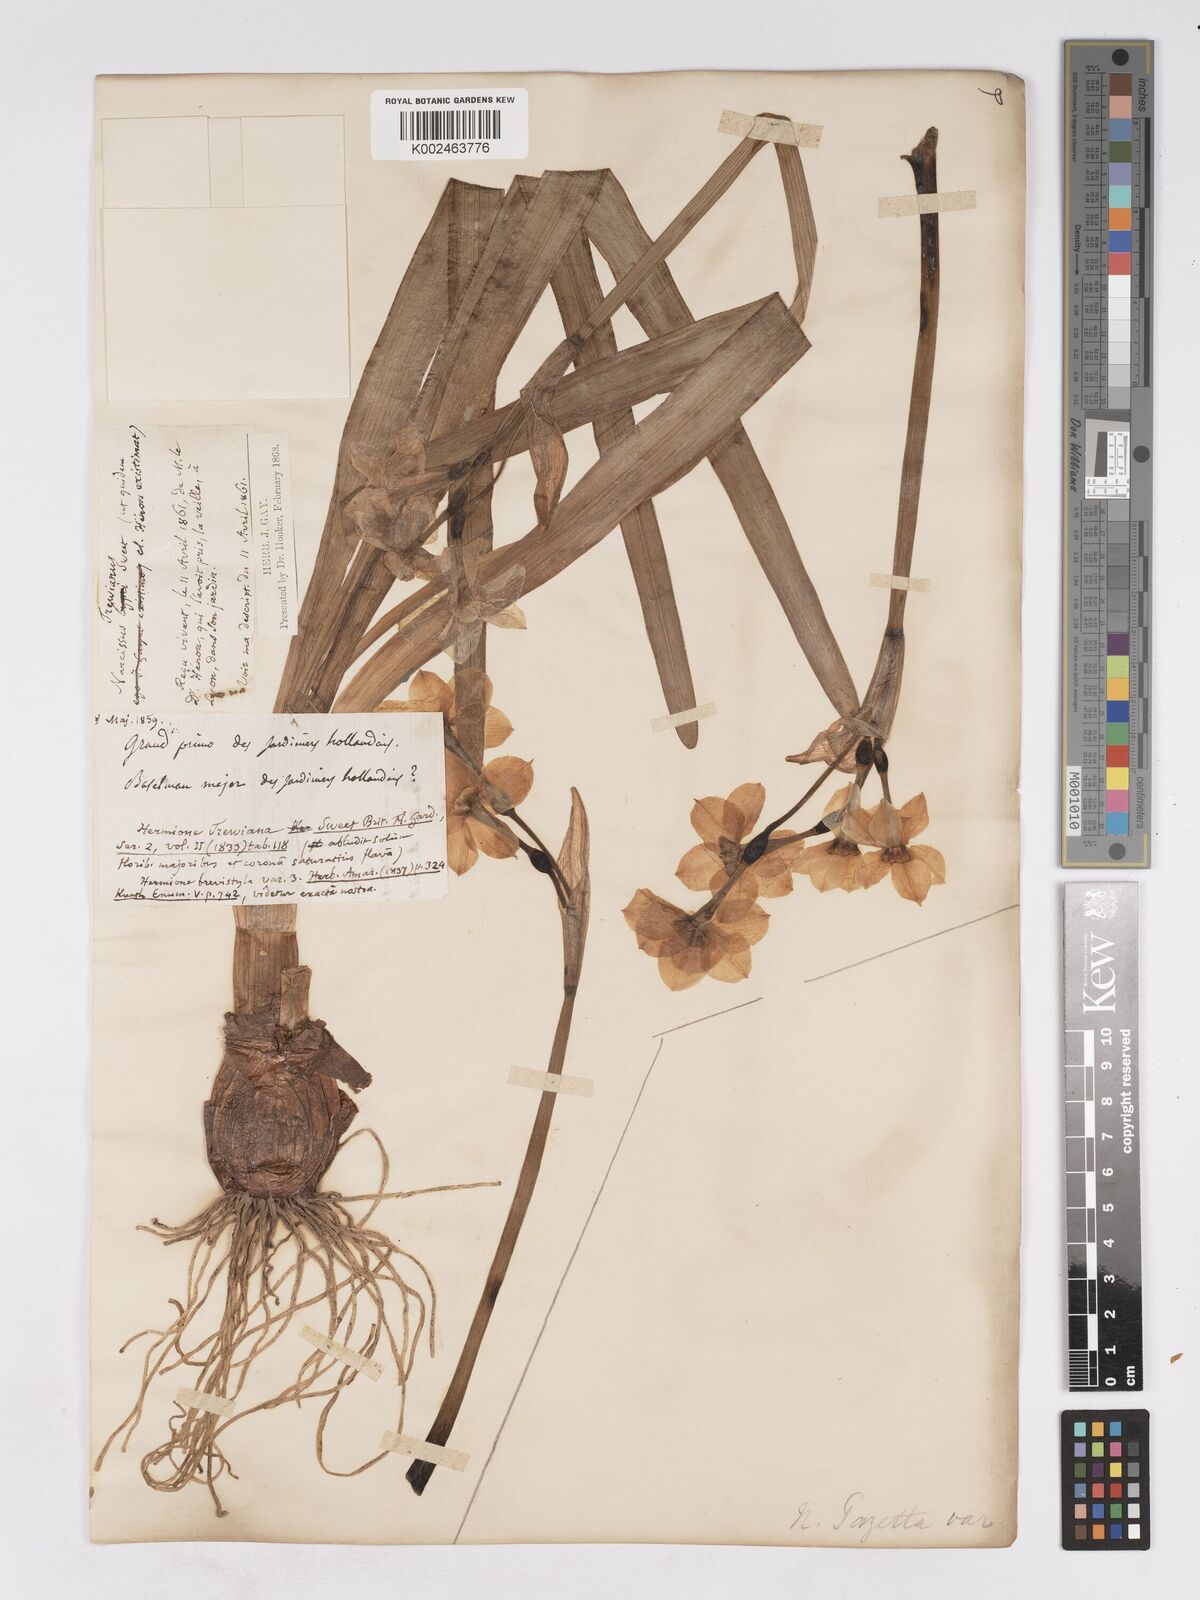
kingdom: Plantae
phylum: Tracheophyta
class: Liliopsida
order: Asparagales
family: Amaryllidaceae
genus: Narcissus
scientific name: Narcissus
